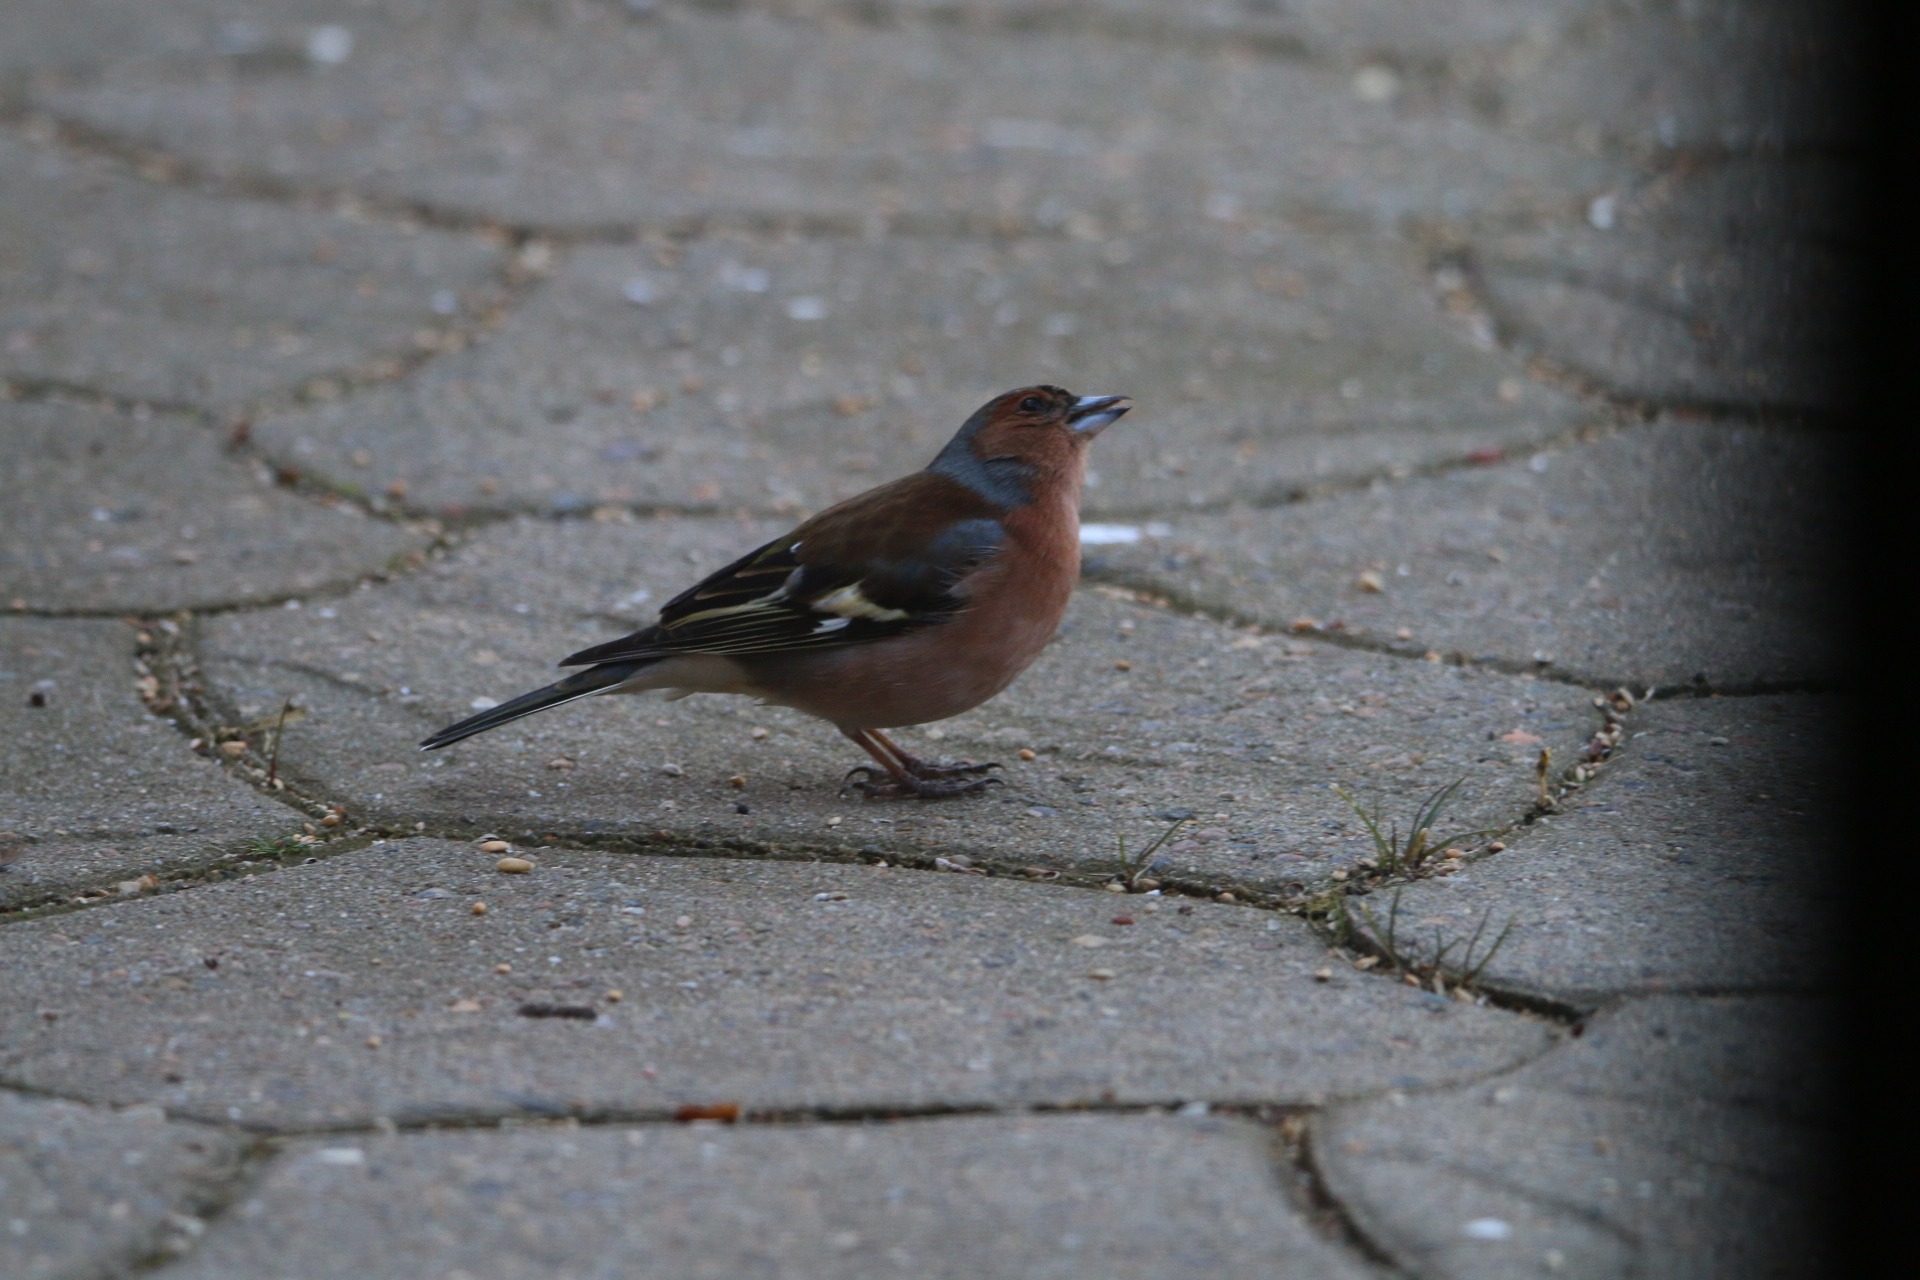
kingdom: Animalia
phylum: Chordata
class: Aves
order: Passeriformes
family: Fringillidae
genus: Fringilla
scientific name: Fringilla coelebs
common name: Bogfinke
